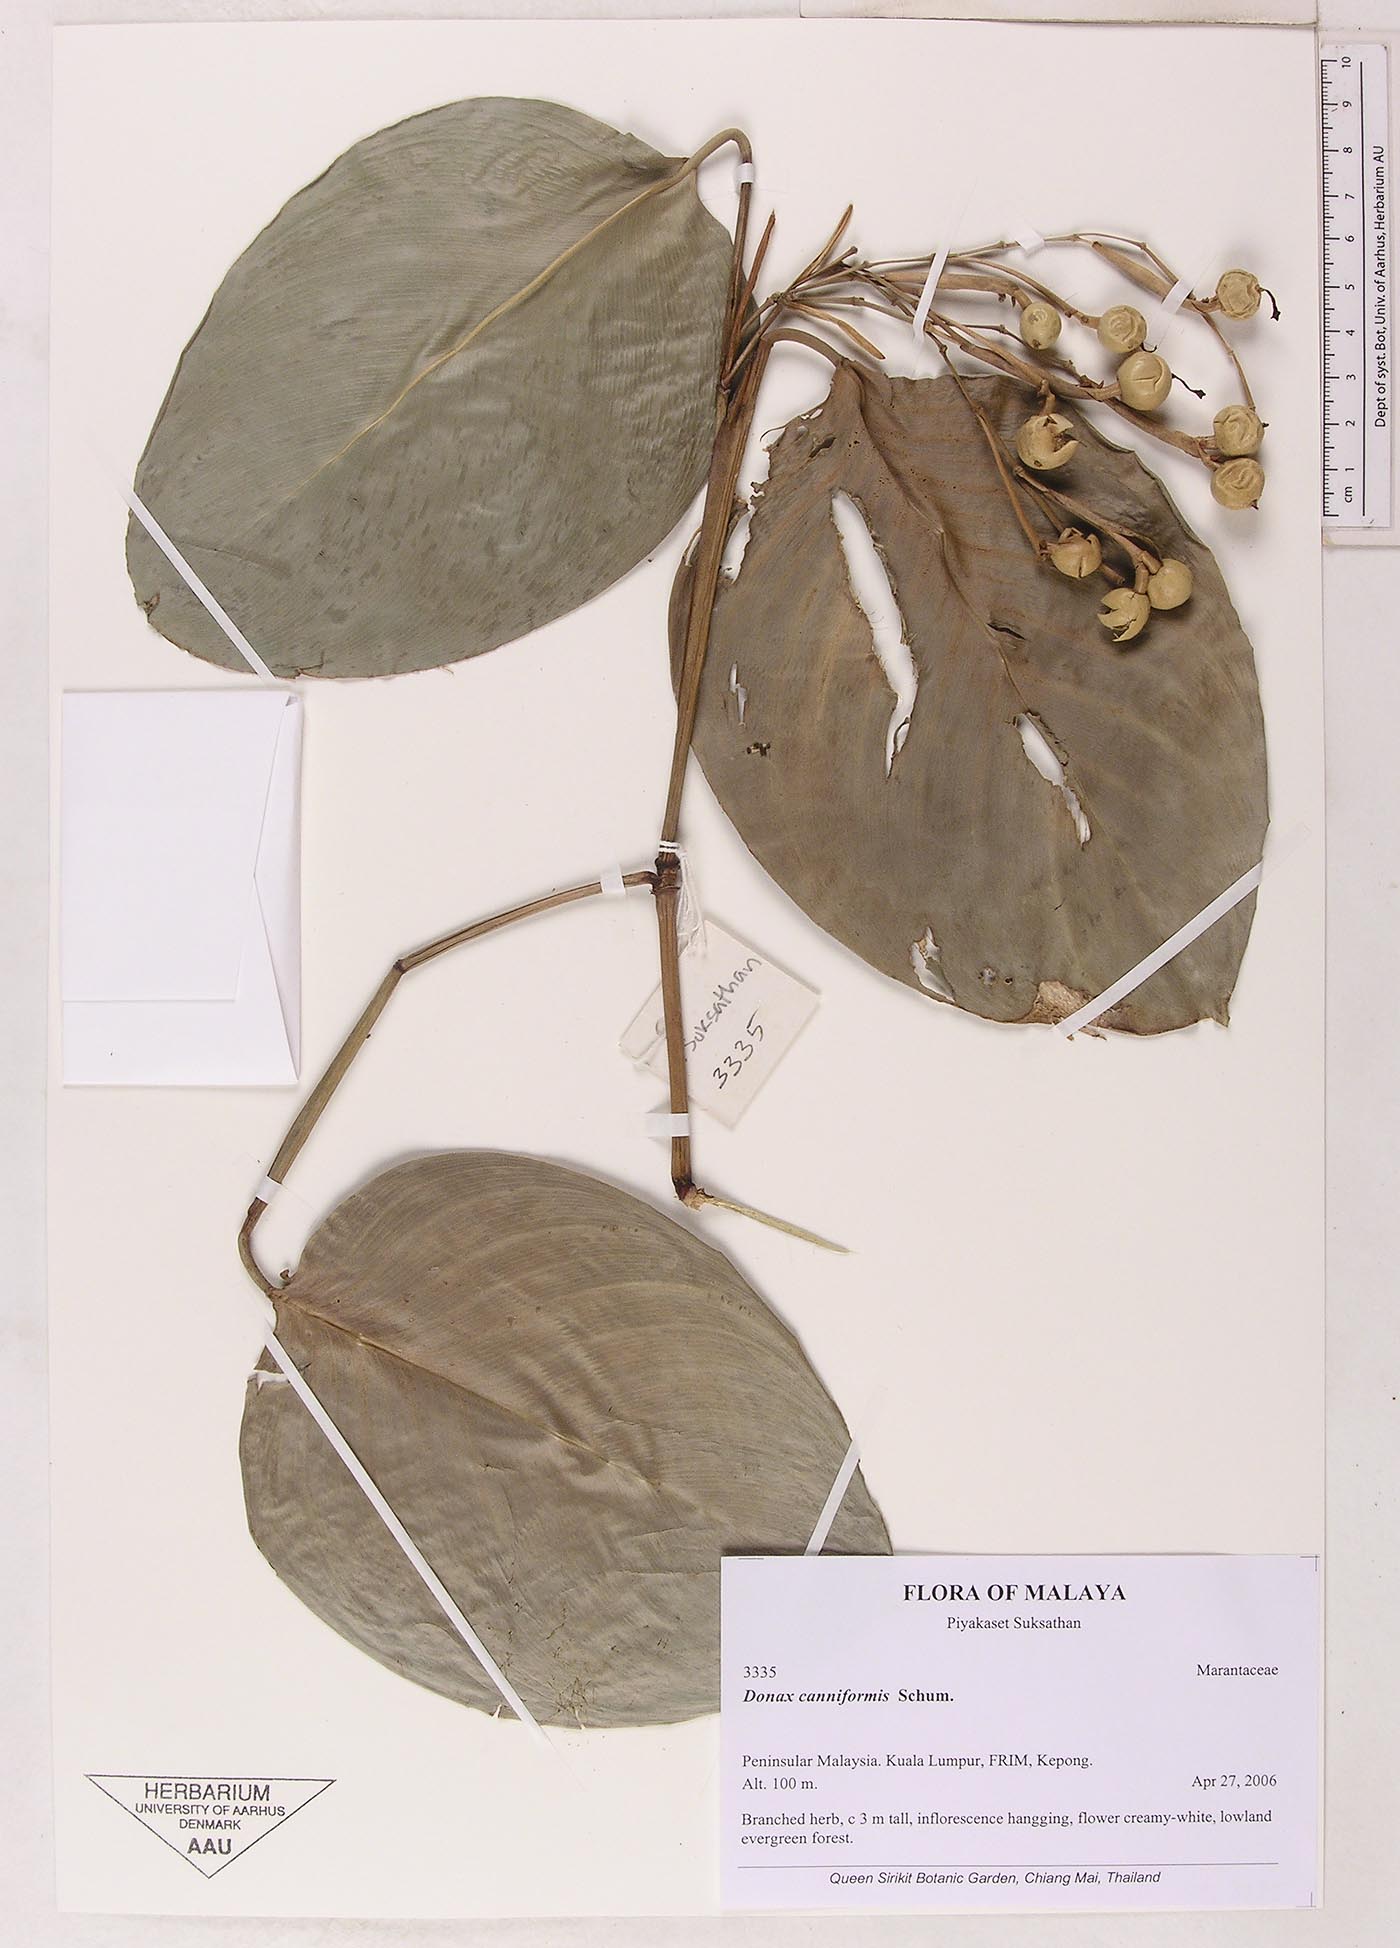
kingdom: Plantae
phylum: Tracheophyta
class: Liliopsida
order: Zingiberales
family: Marantaceae
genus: Donax
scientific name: Donax canniformis
